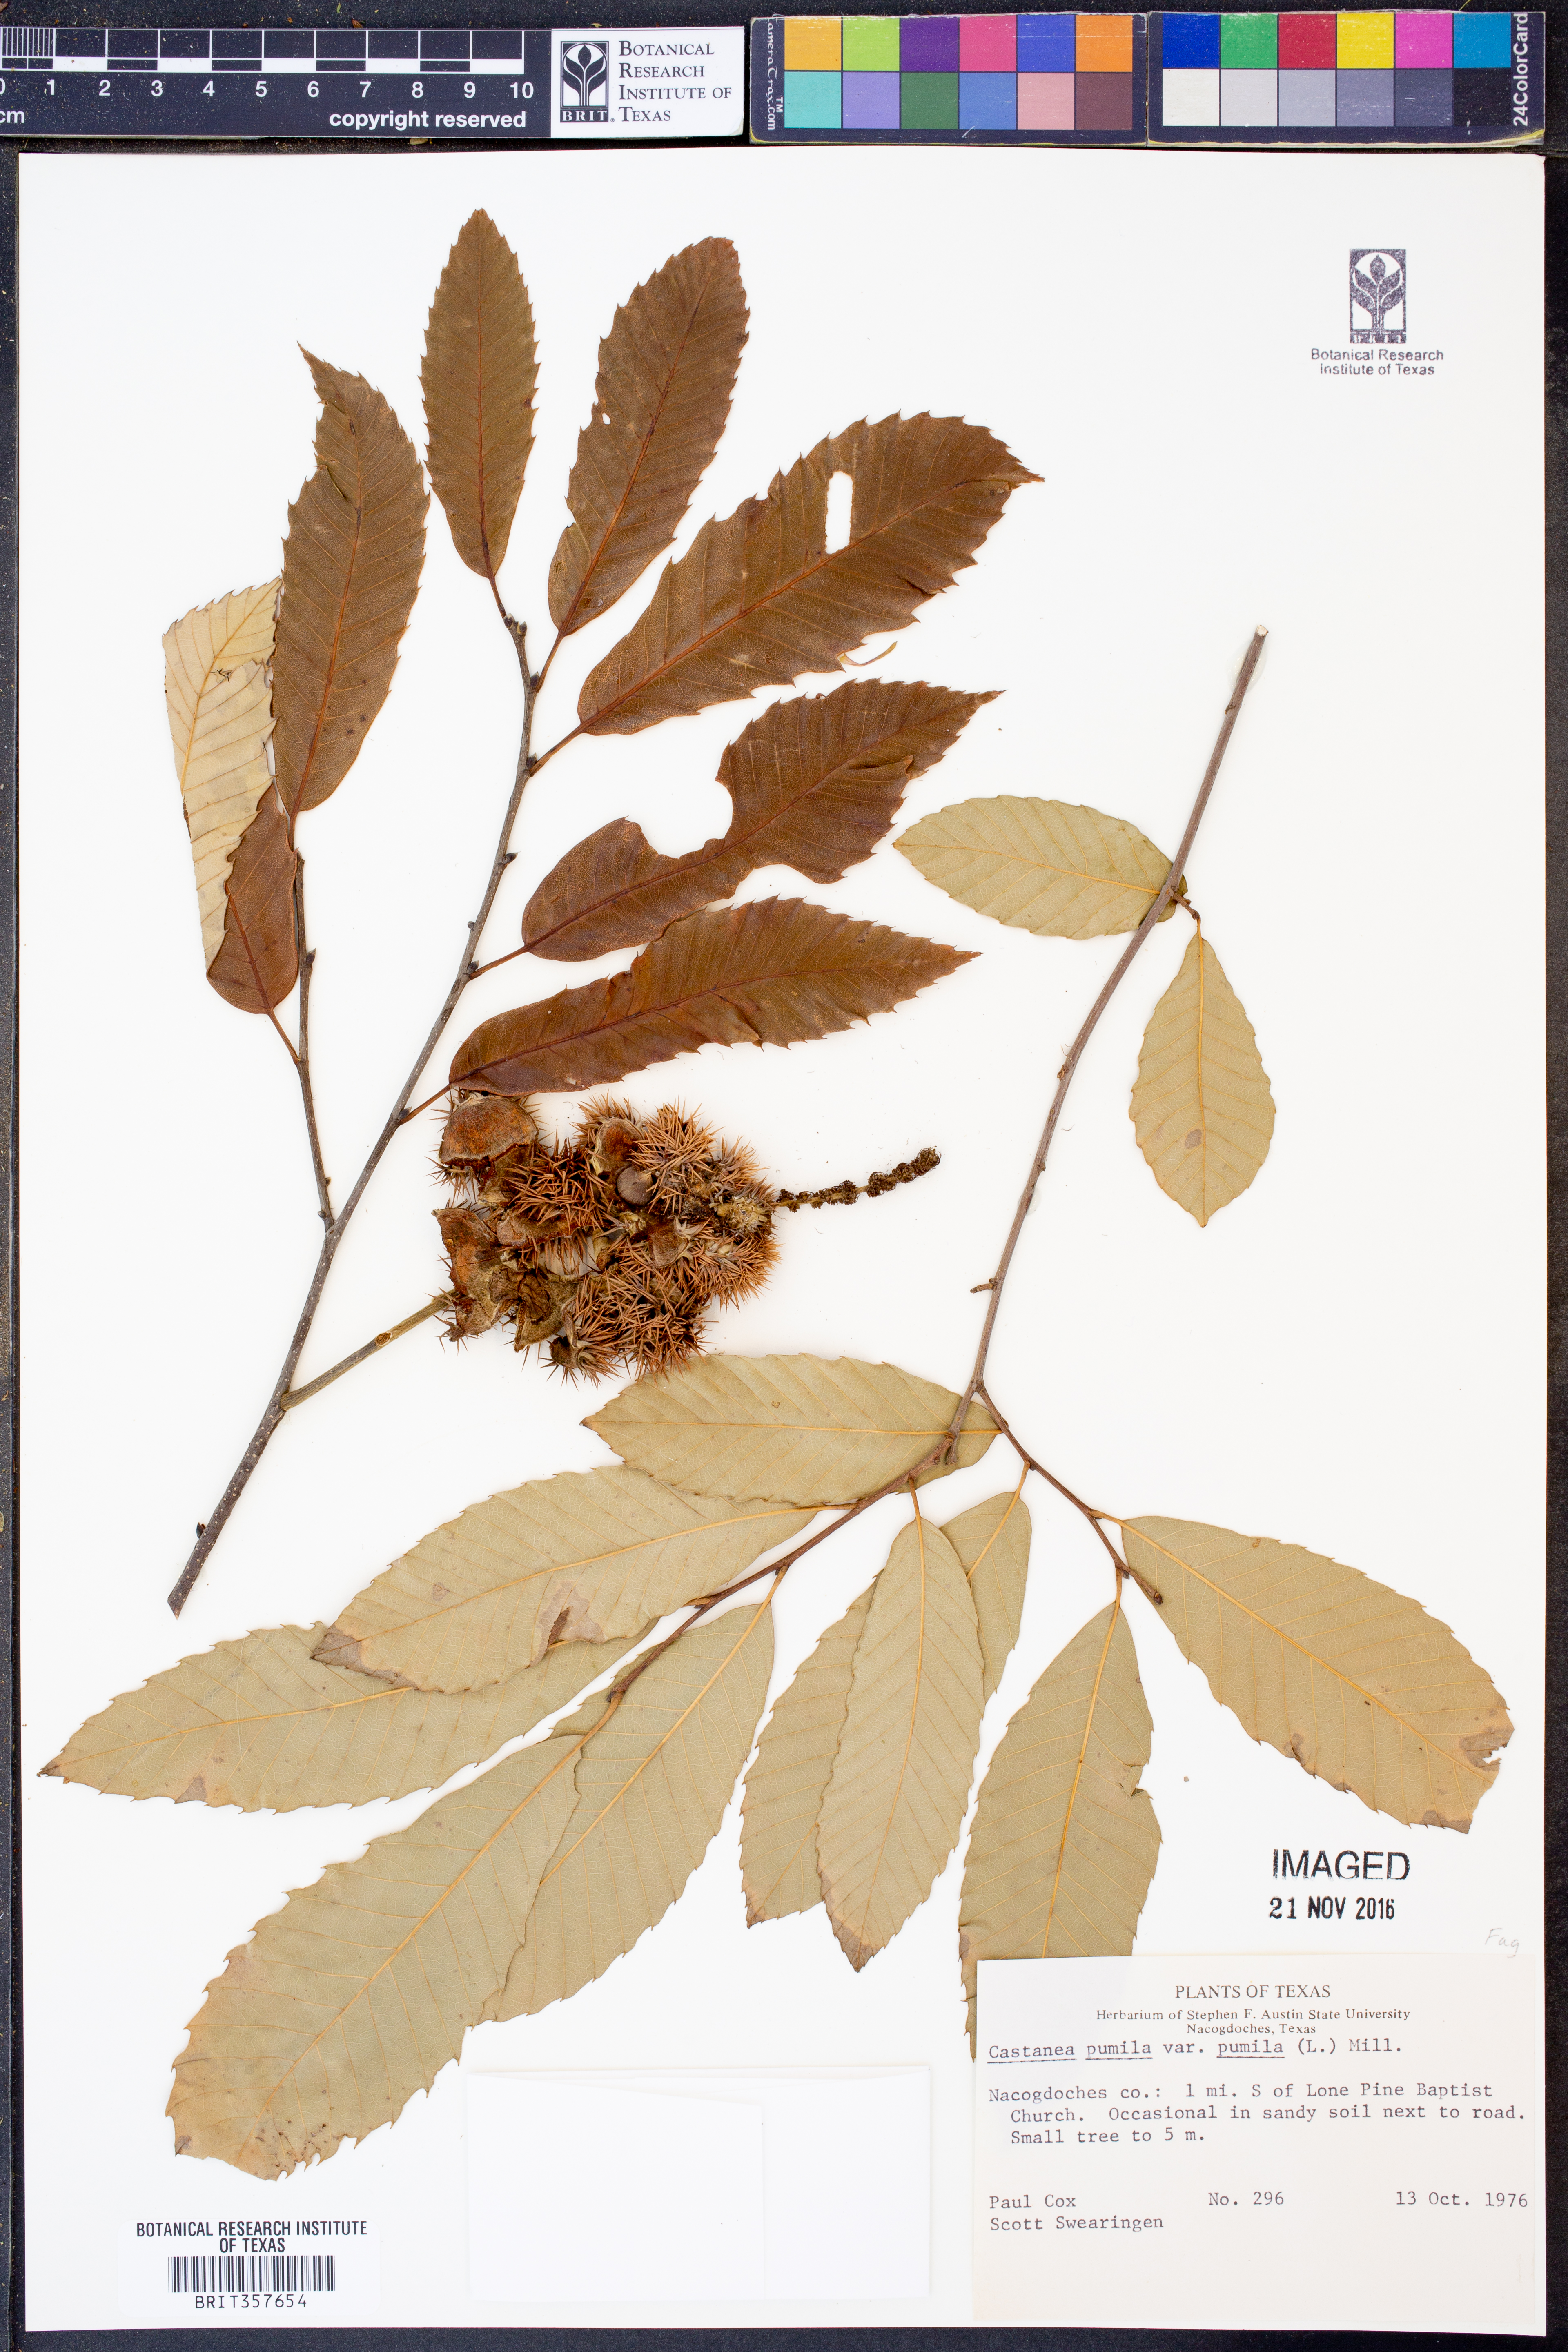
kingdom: Plantae
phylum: Tracheophyta
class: Magnoliopsida
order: Fagales
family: Fagaceae
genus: Castanea
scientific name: Castanea pumila
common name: Chinkapin
